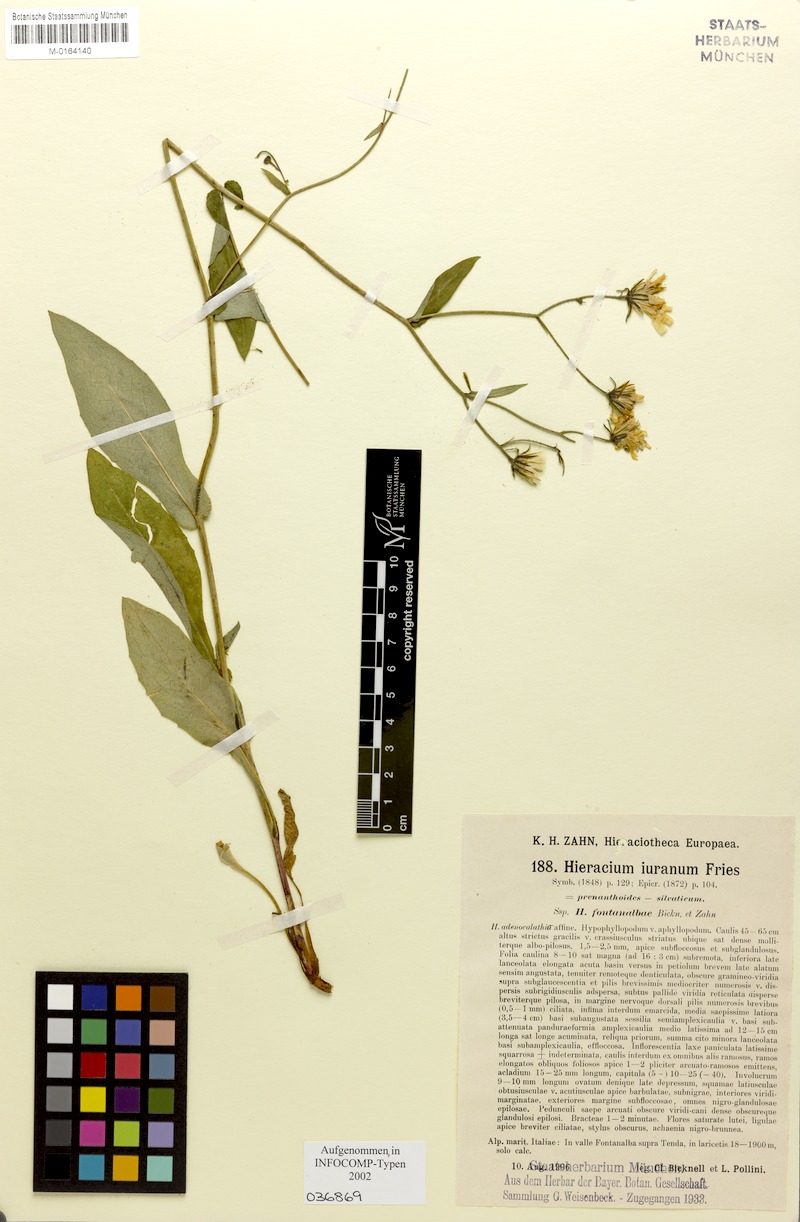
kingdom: Plantae
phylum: Tracheophyta
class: Magnoliopsida
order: Asterales
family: Asteraceae
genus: Hieracium
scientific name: Hieracium jurassicum
